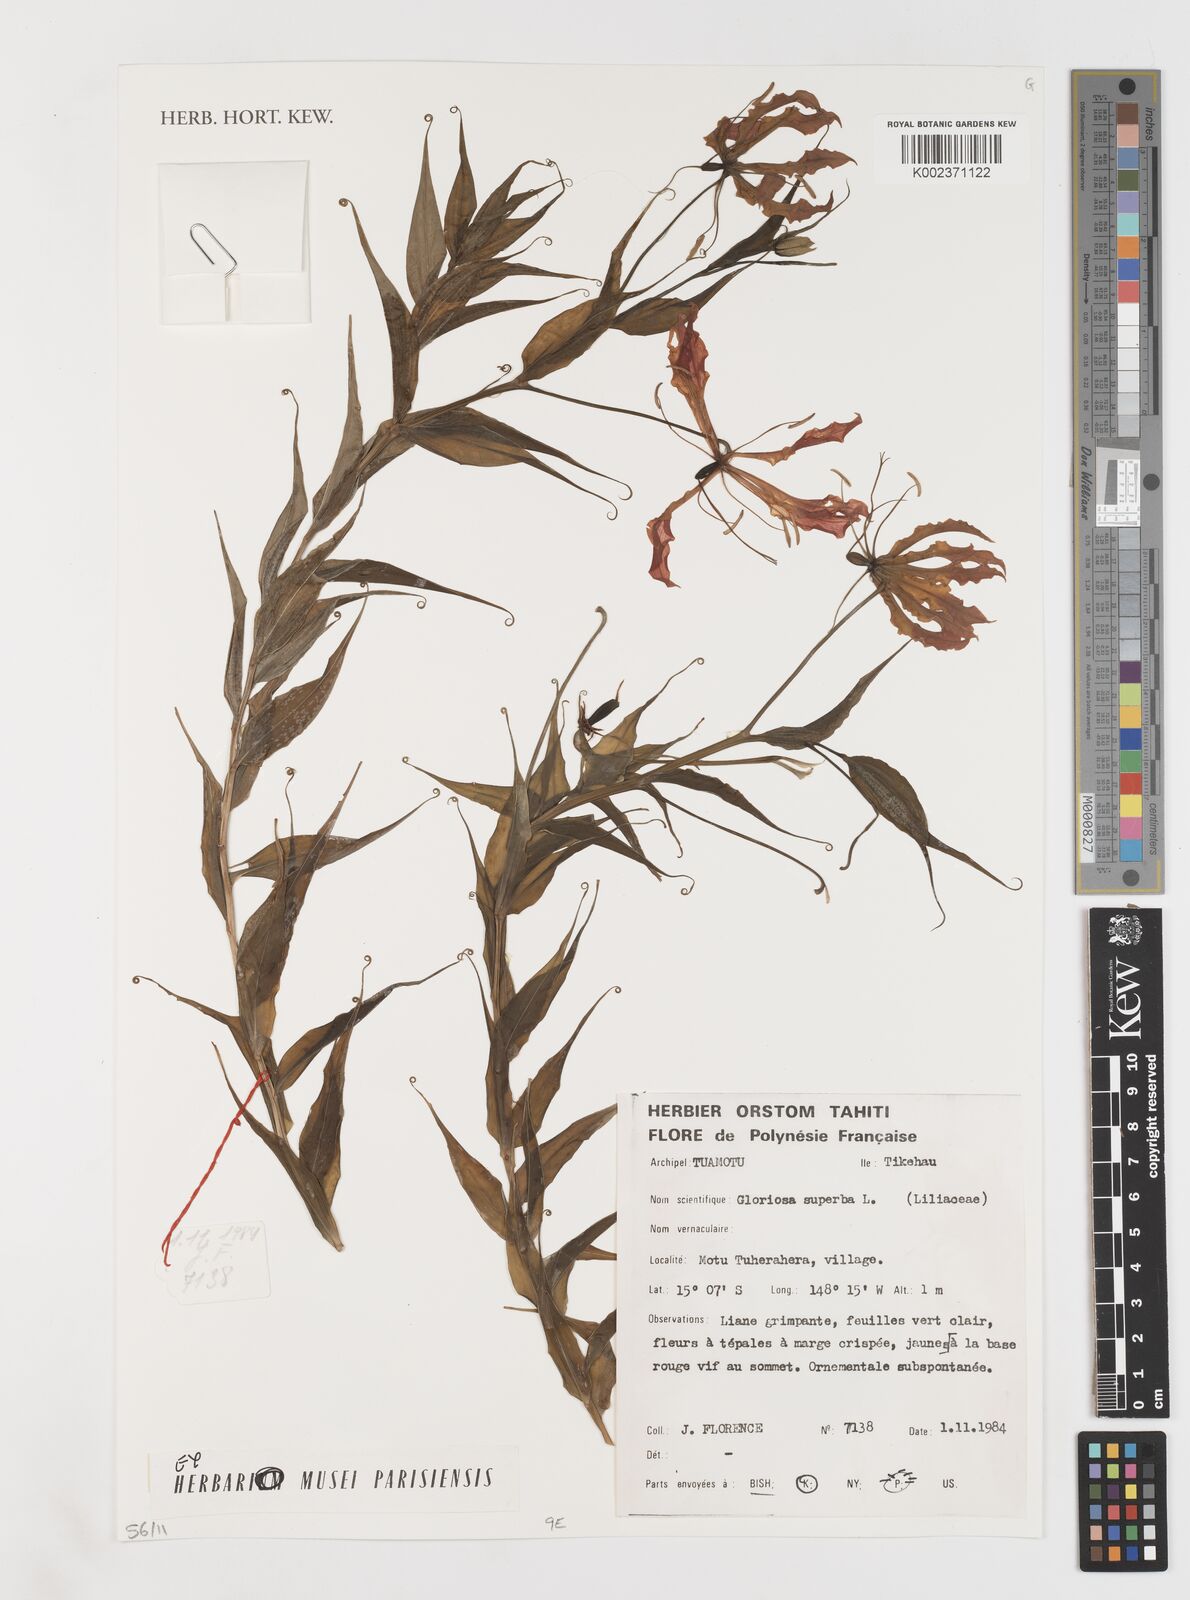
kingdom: Plantae
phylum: Tracheophyta
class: Liliopsida
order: Liliales
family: Colchicaceae
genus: Gloriosa
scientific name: Gloriosa superba
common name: Flame lily
